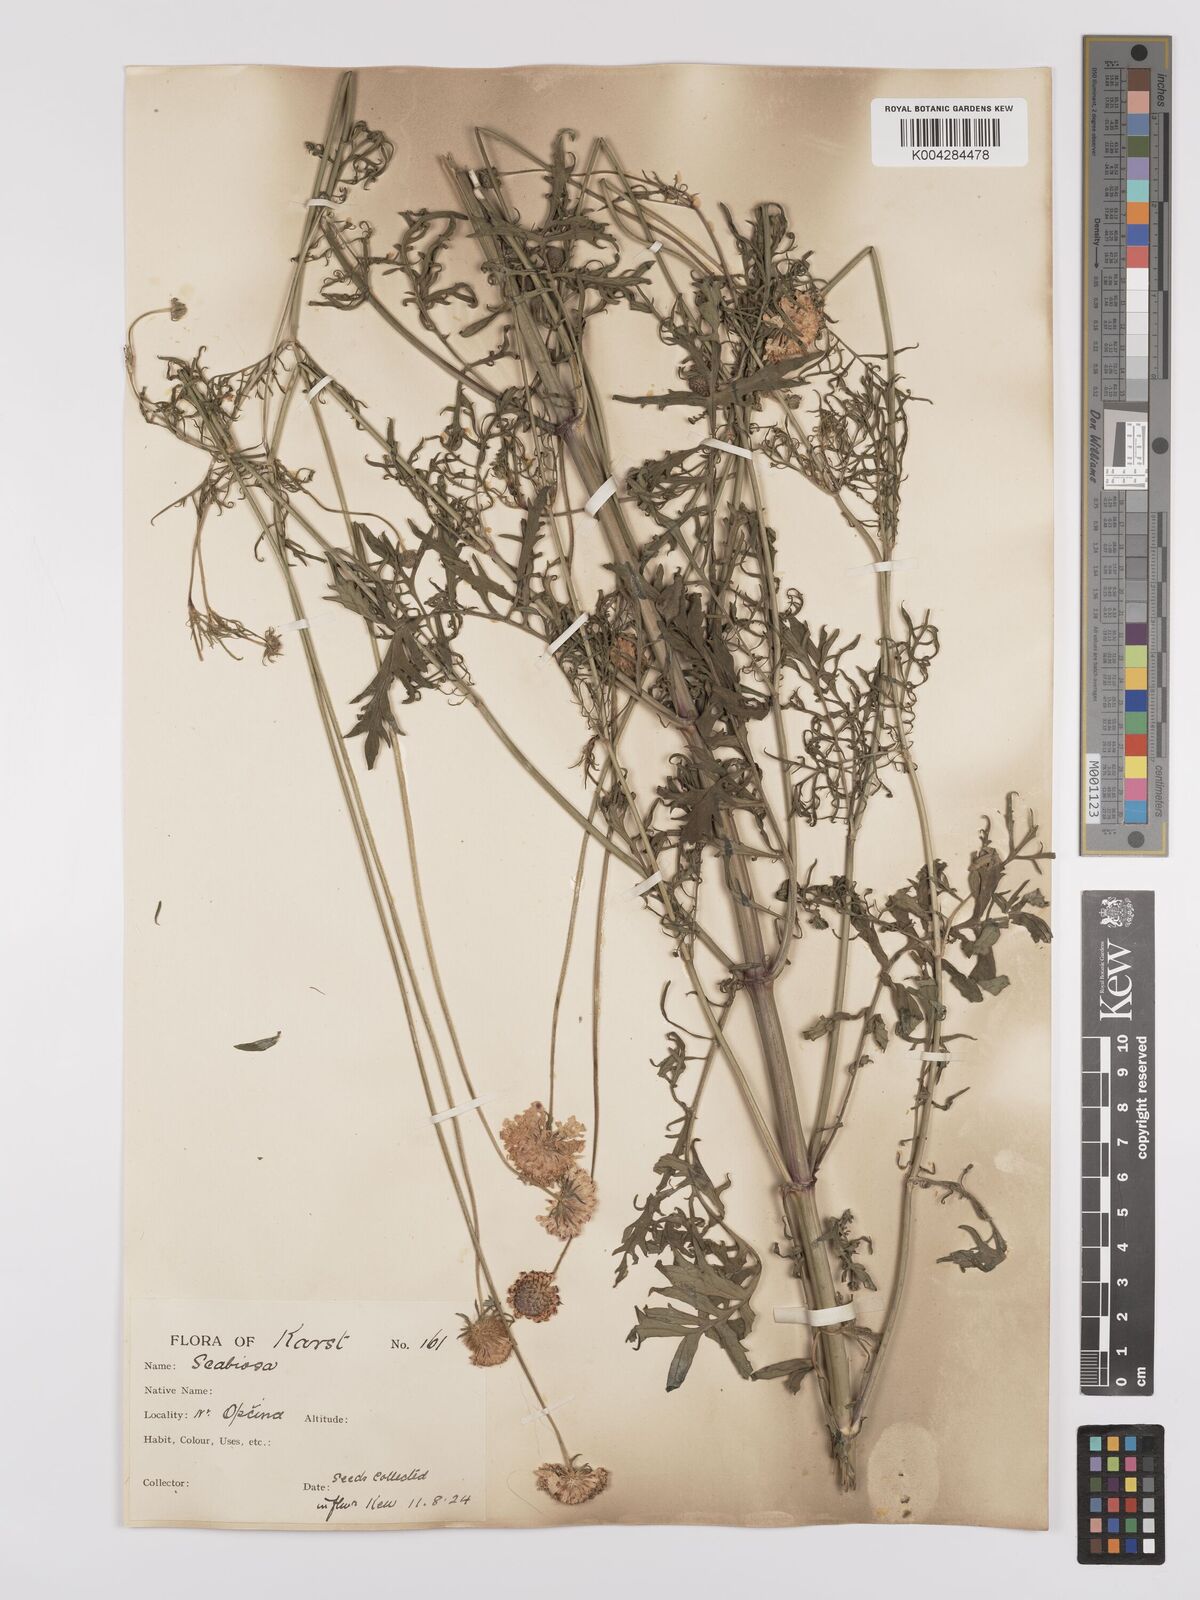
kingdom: Plantae
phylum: Tracheophyta
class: Magnoliopsida
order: Dipsacales
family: Caprifoliaceae
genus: Sixalix
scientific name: Sixalix maritima
